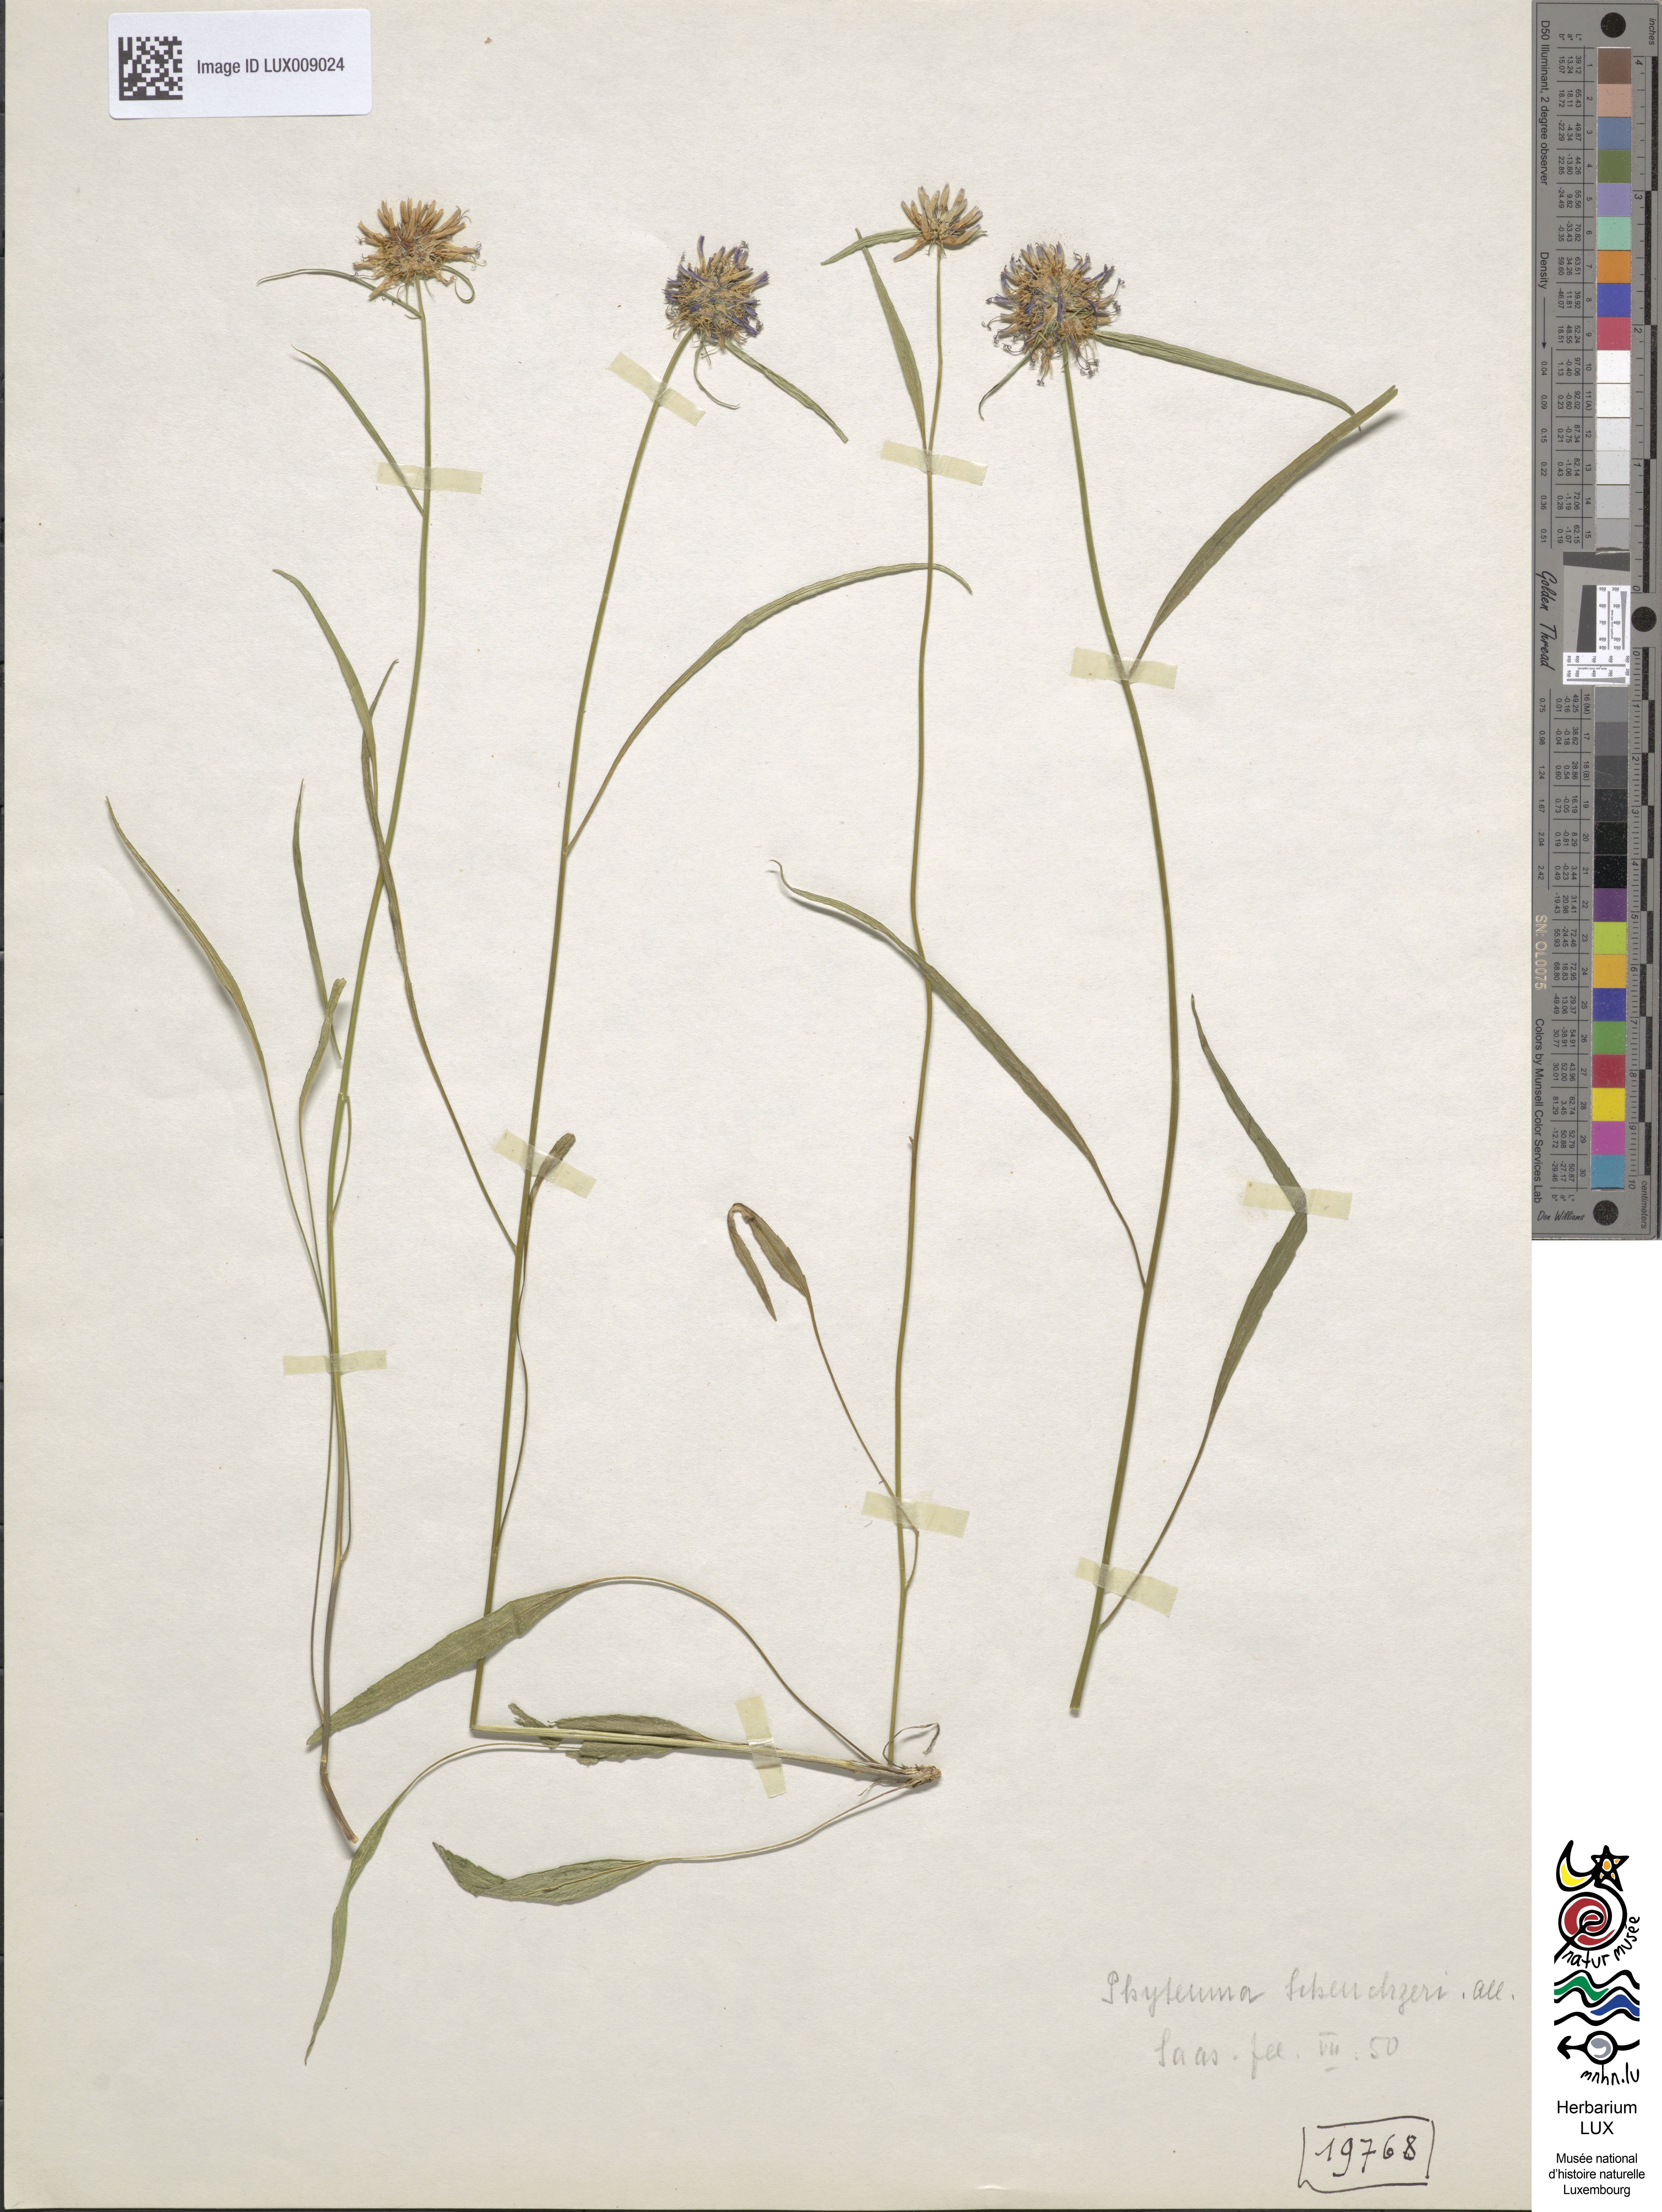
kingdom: Plantae
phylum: Tracheophyta
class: Magnoliopsida
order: Asterales
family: Campanulaceae
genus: Phyteuma
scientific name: Phyteuma scheuchzeri
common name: Oxford rampion
